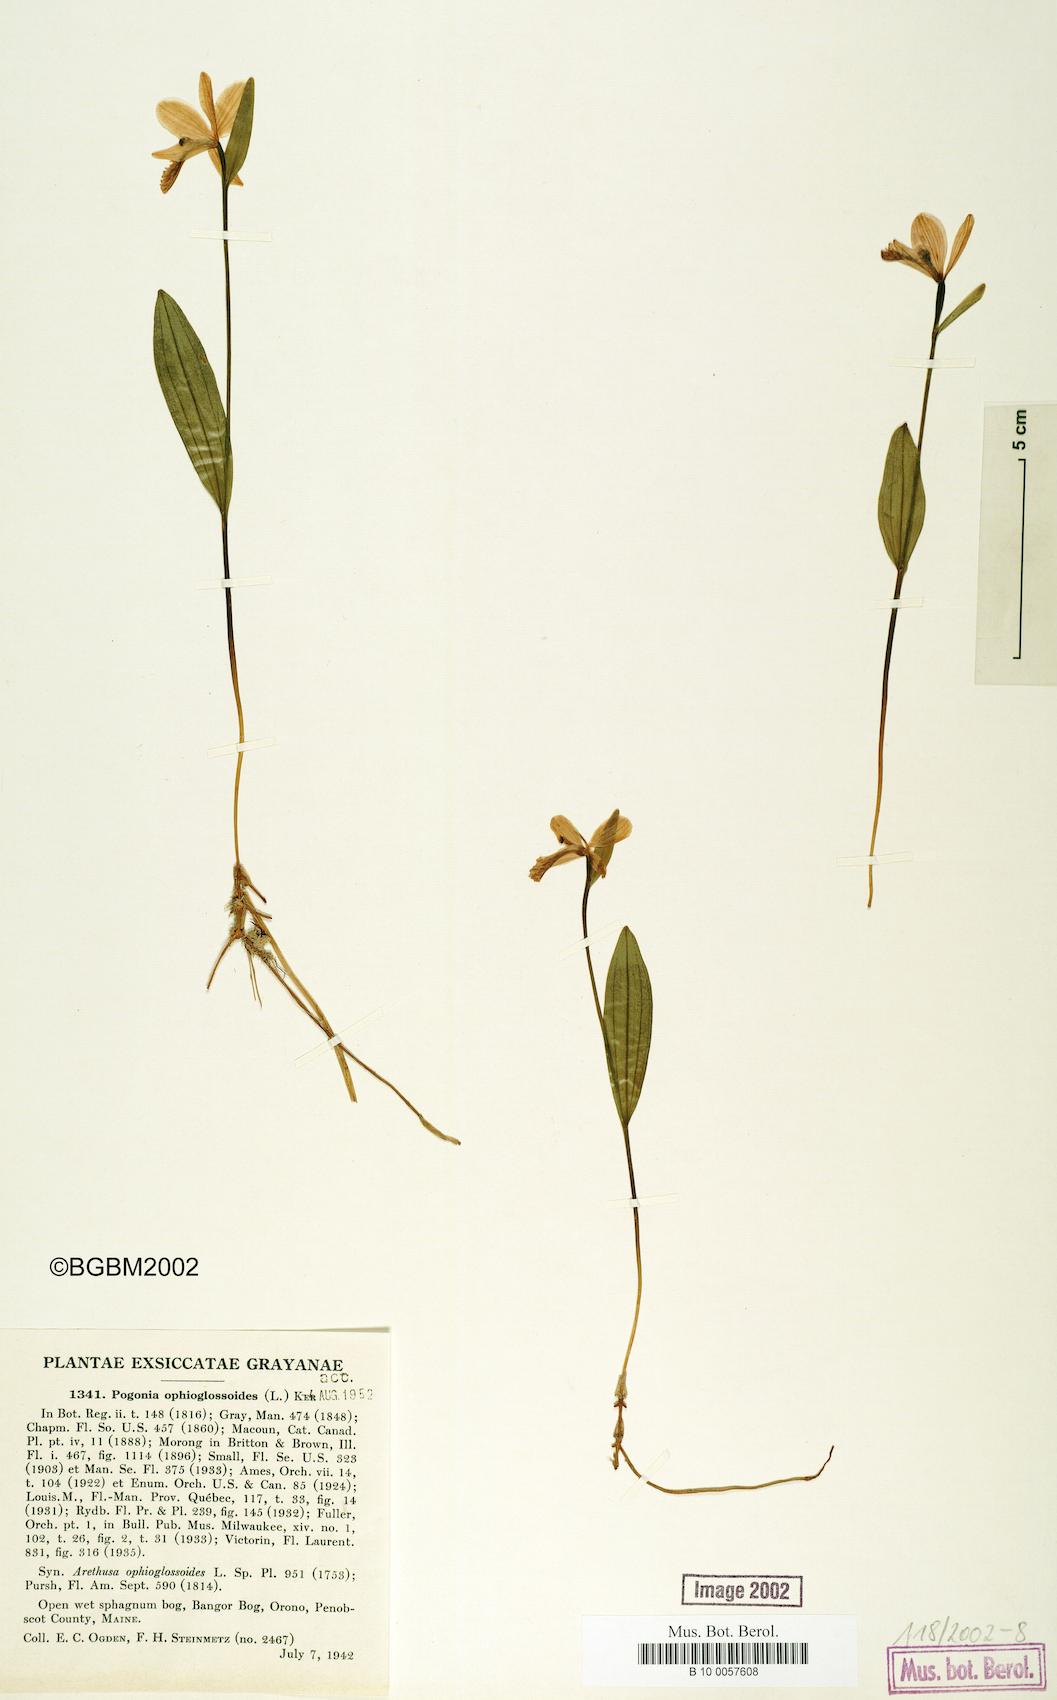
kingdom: Plantae
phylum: Tracheophyta
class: Liliopsida
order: Asparagales
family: Orchidaceae
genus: Pogonia
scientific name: Pogonia ophioglossoides
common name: Rose pogonia
